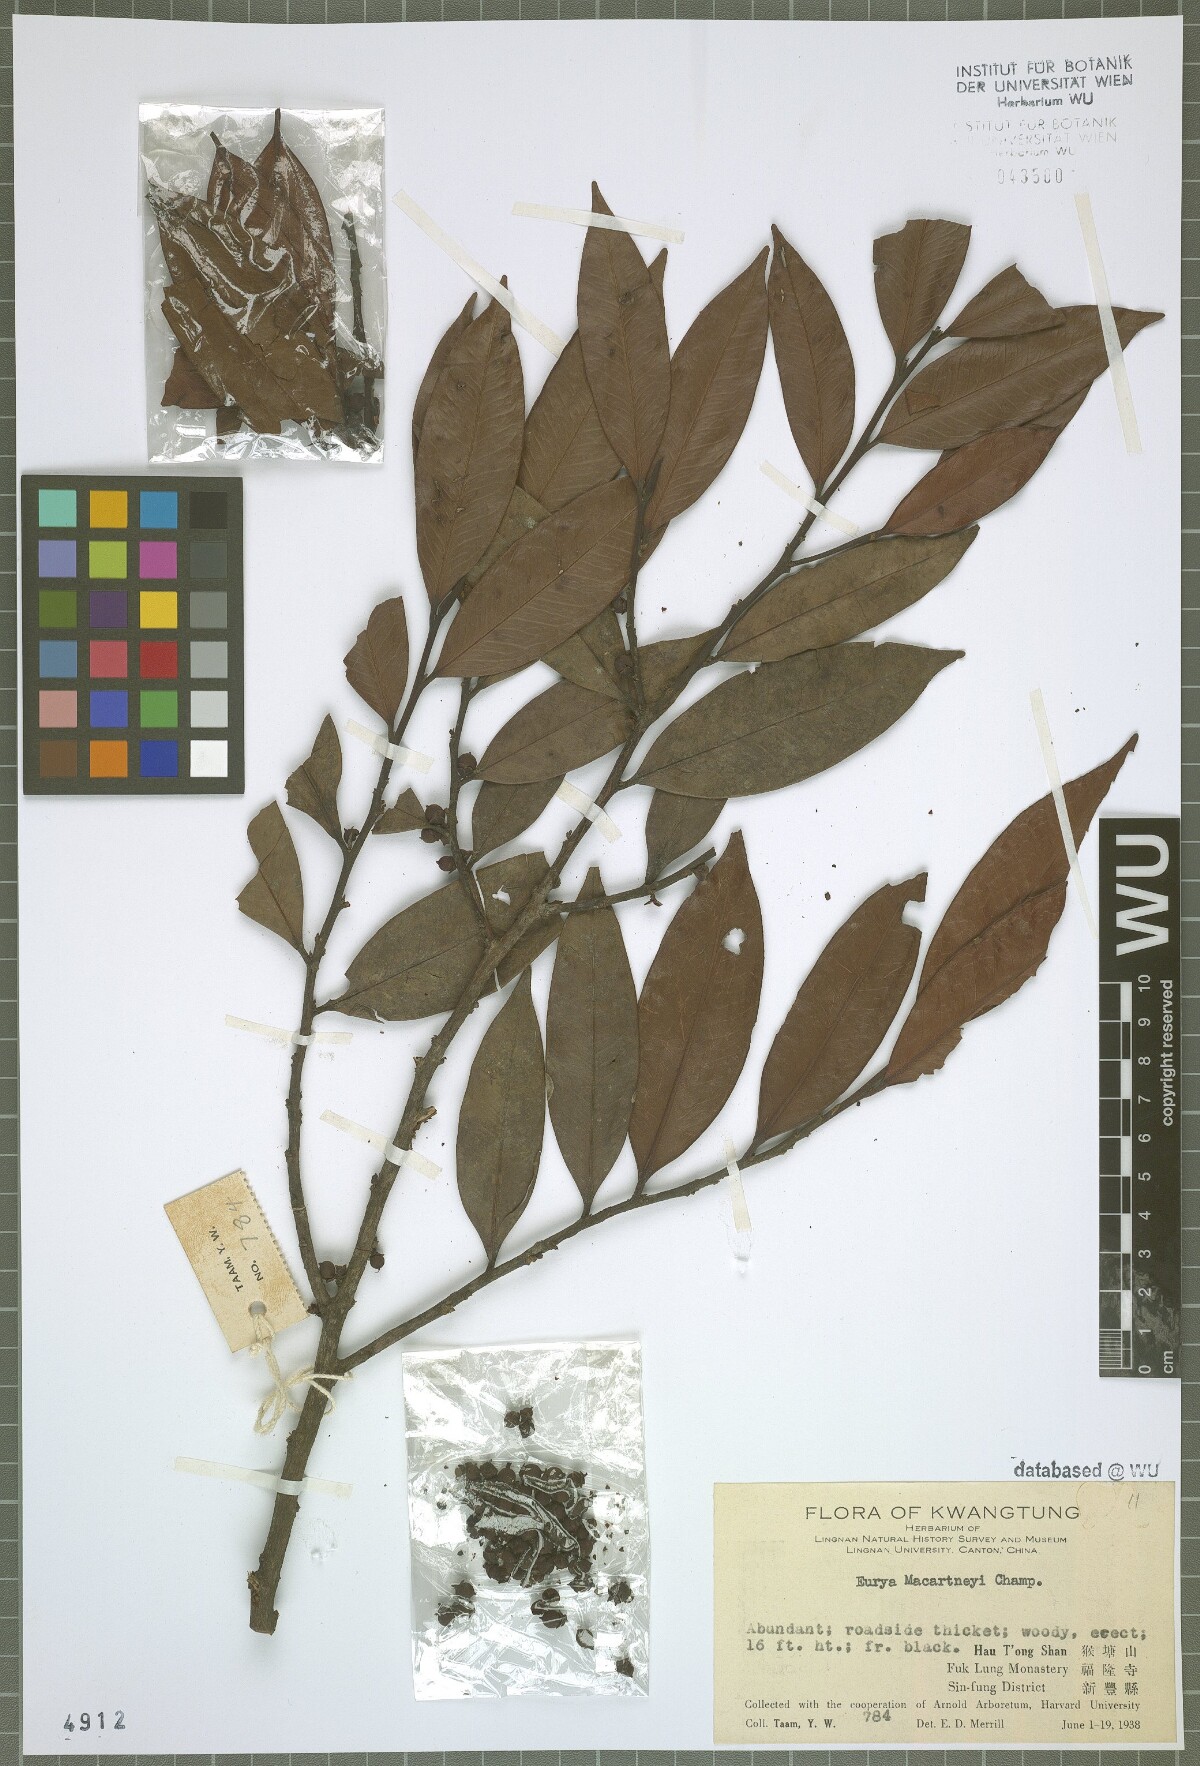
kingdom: Plantae
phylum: Tracheophyta
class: Magnoliopsida
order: Ericales
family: Pentaphylacaceae
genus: Eurya
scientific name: Eurya macartneyi
